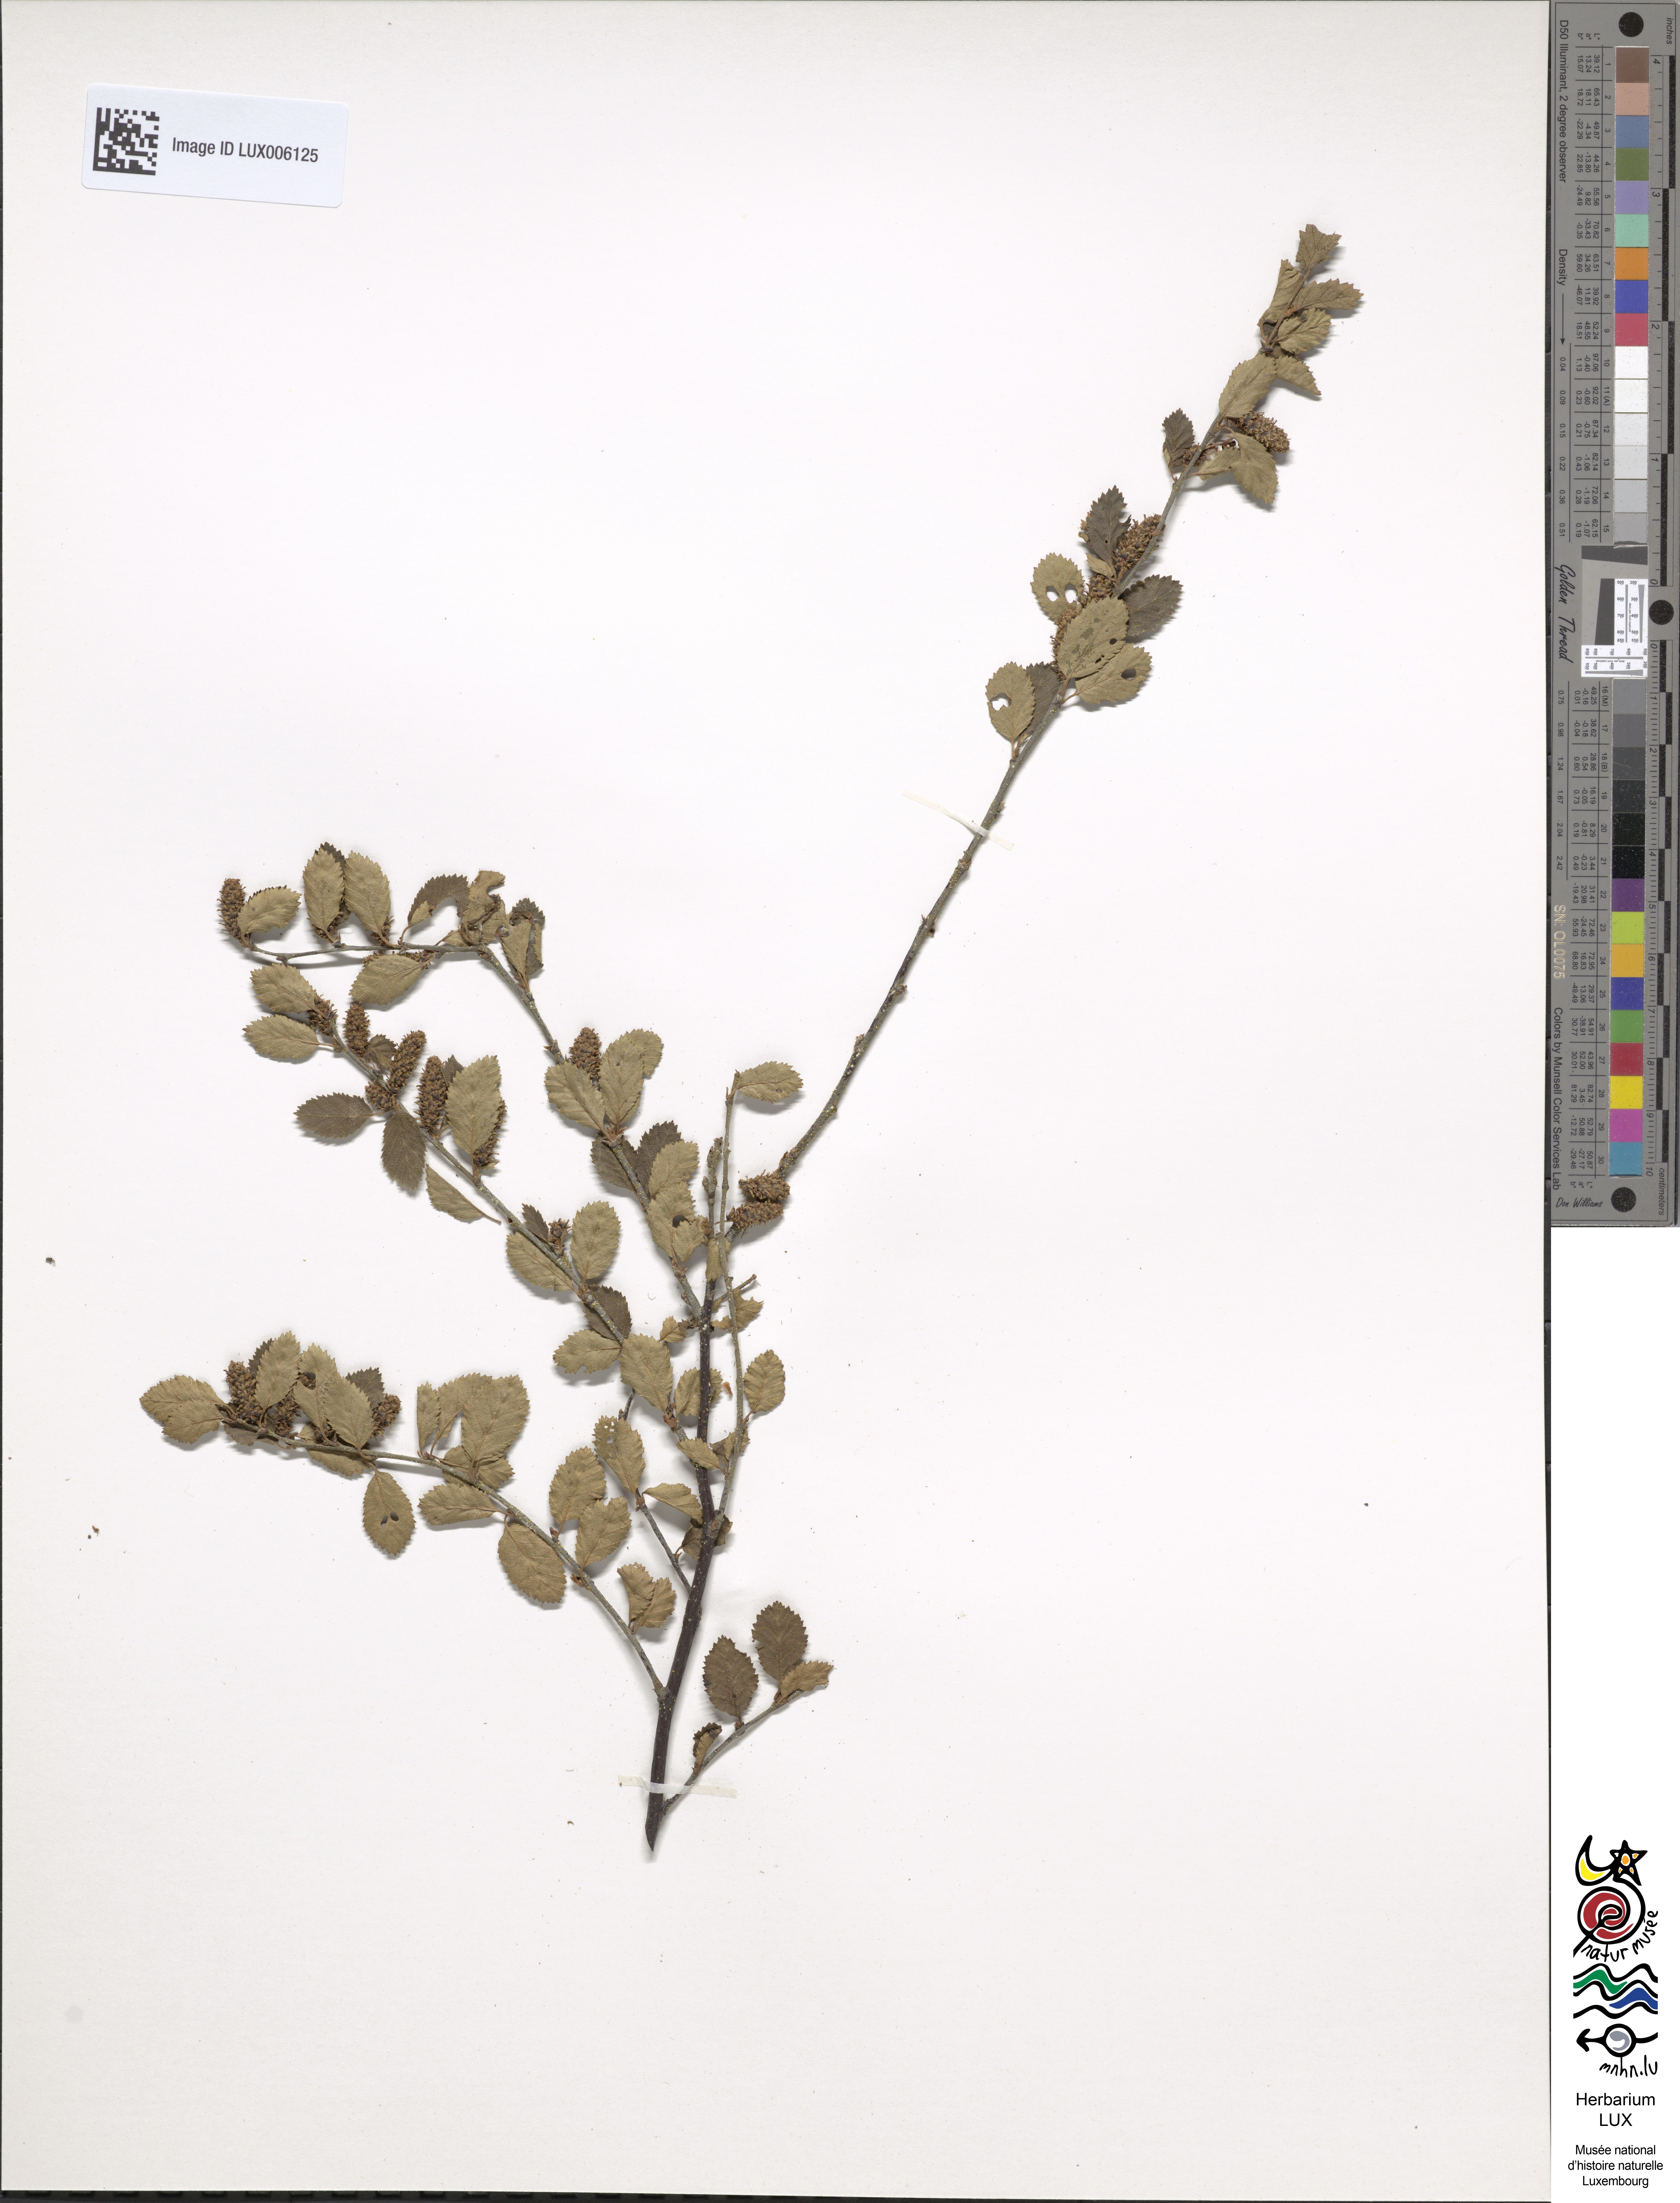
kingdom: Plantae
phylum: Tracheophyta
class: Magnoliopsida
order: Fagales
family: Betulaceae
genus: Betula
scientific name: Betula humilis
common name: Shrubby birch
